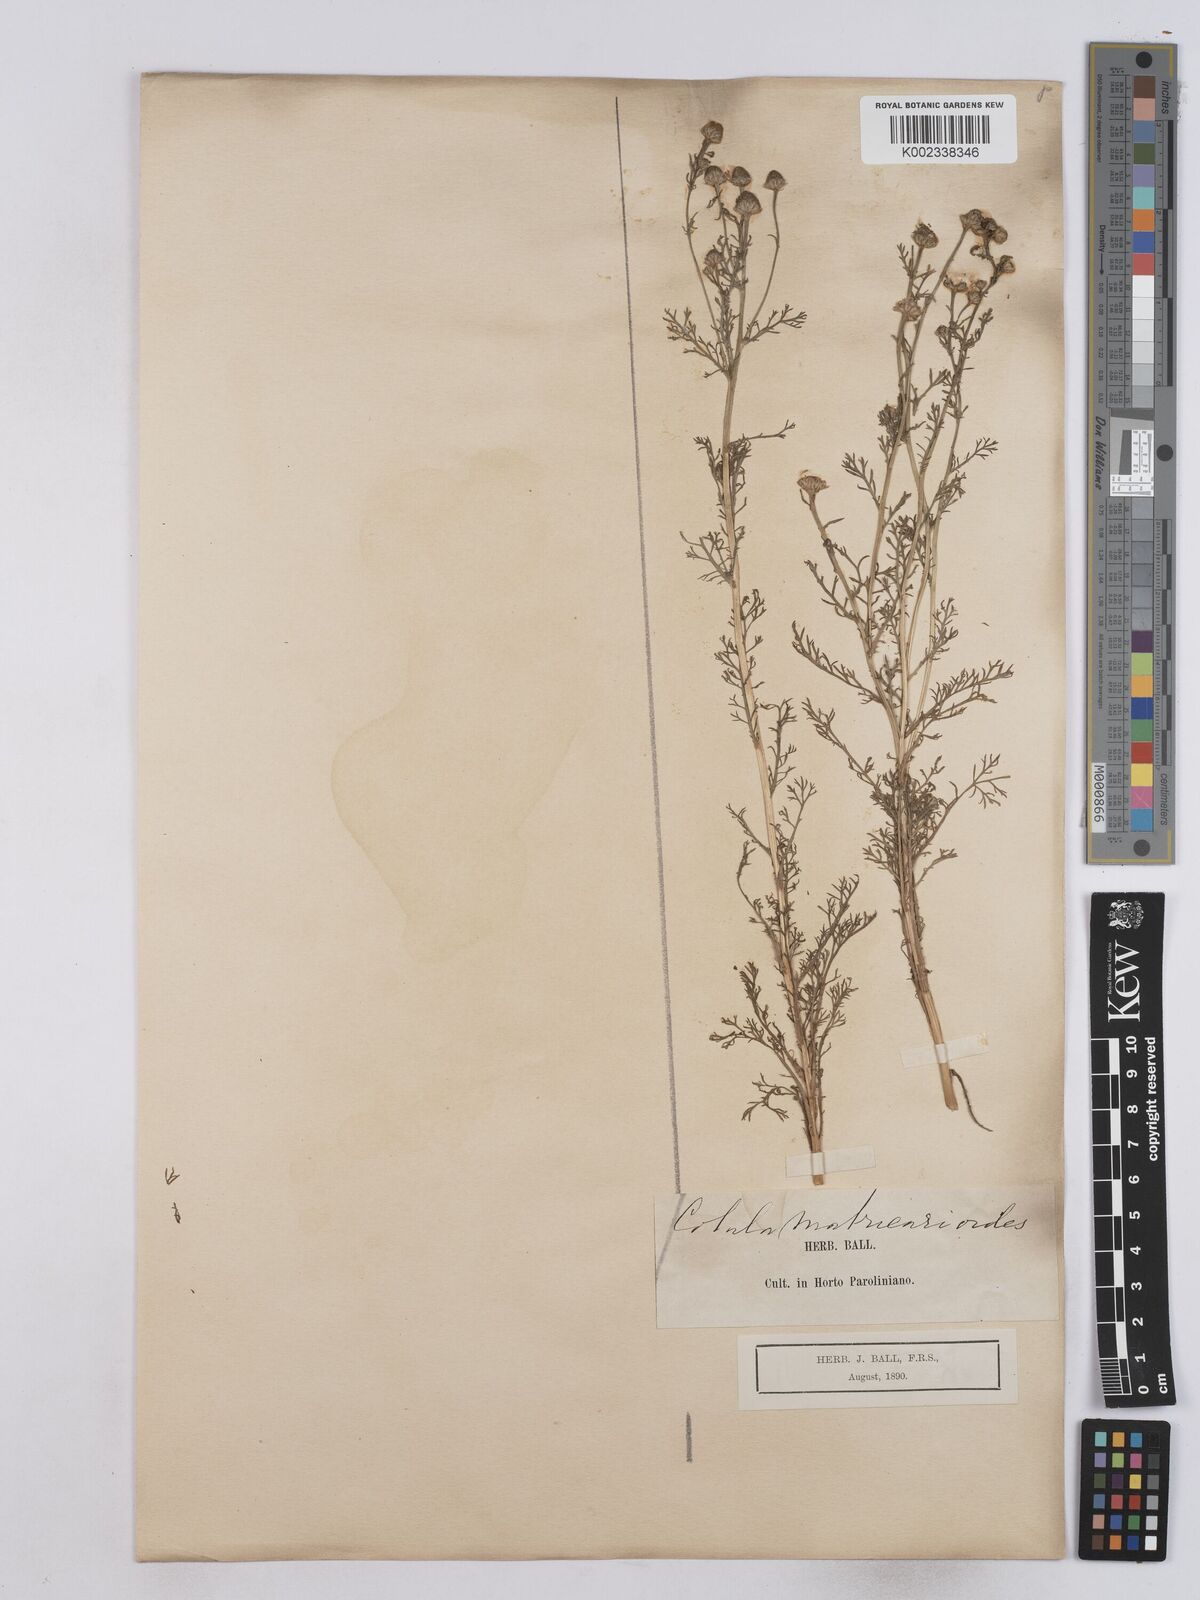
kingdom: Plantae
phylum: Tracheophyta
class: Magnoliopsida
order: Asterales
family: Asteraceae
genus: Matricaria
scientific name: Matricaria discoidea
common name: Disc mayweed
